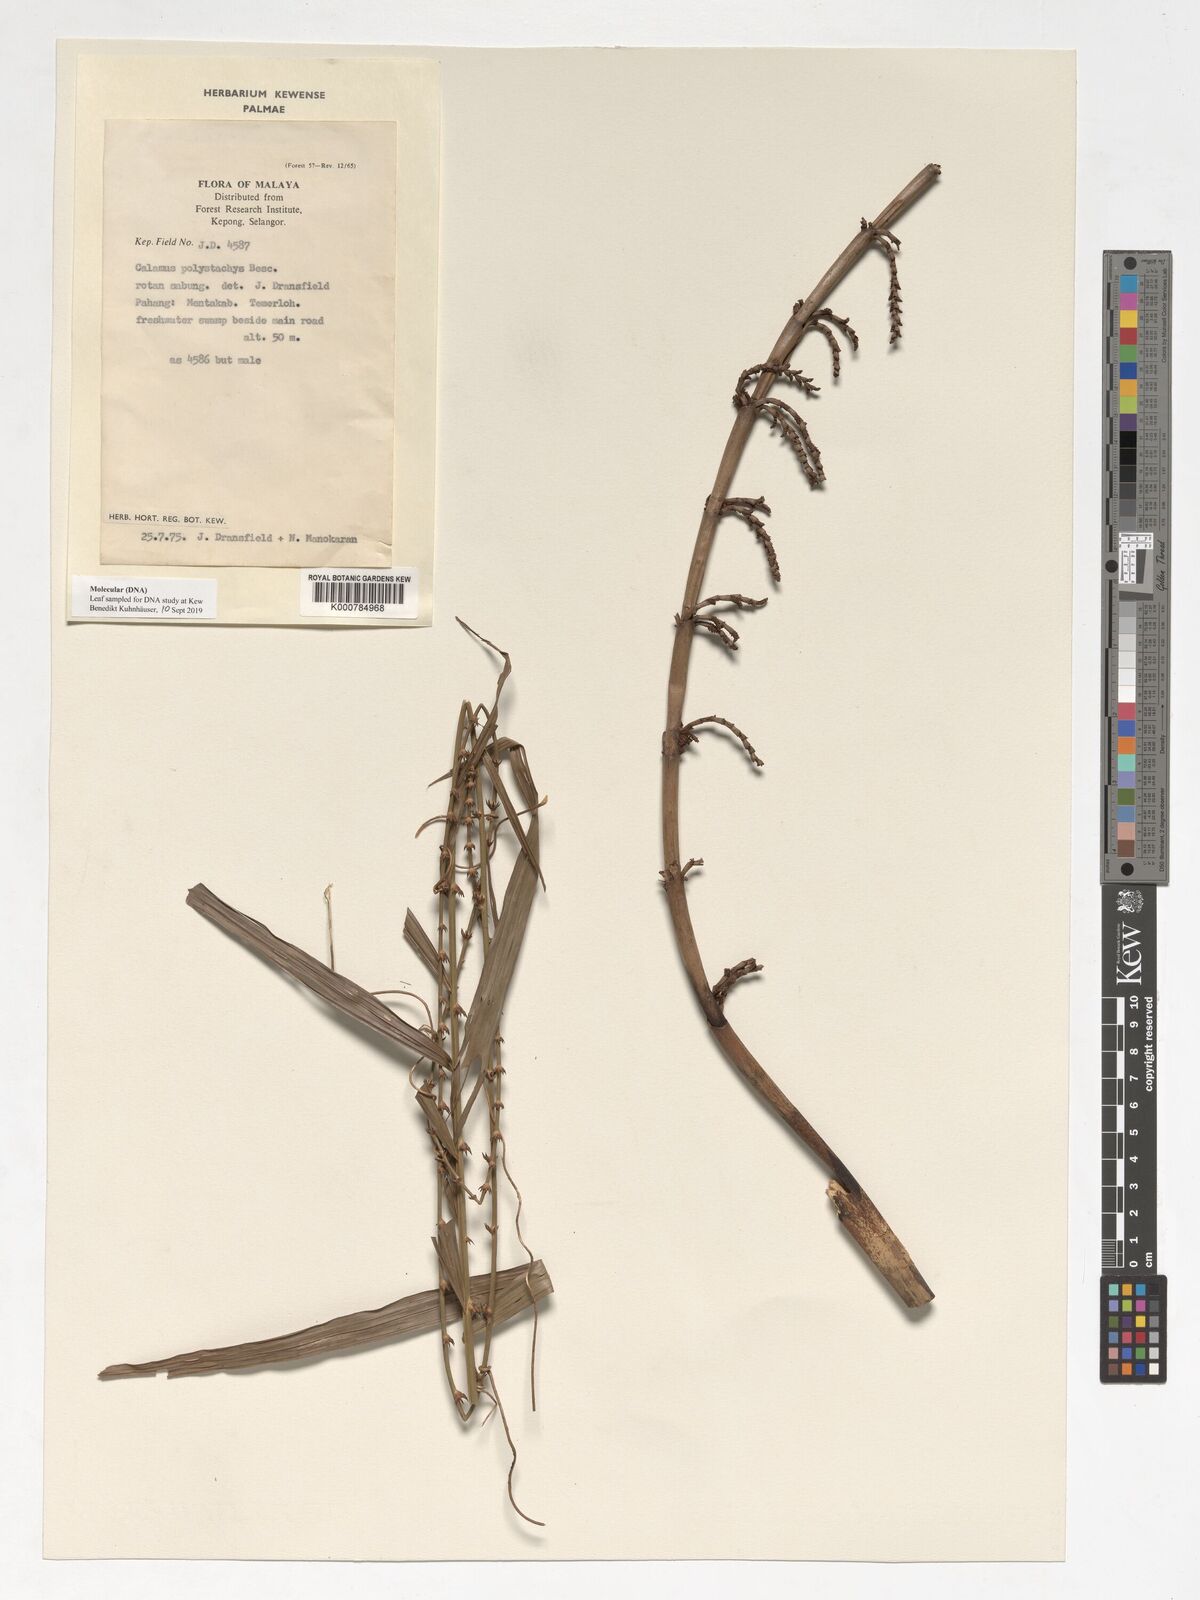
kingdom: Plantae
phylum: Tracheophyta
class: Liliopsida
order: Arecales
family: Arecaceae
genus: Calamus
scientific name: Calamus mirabilis
